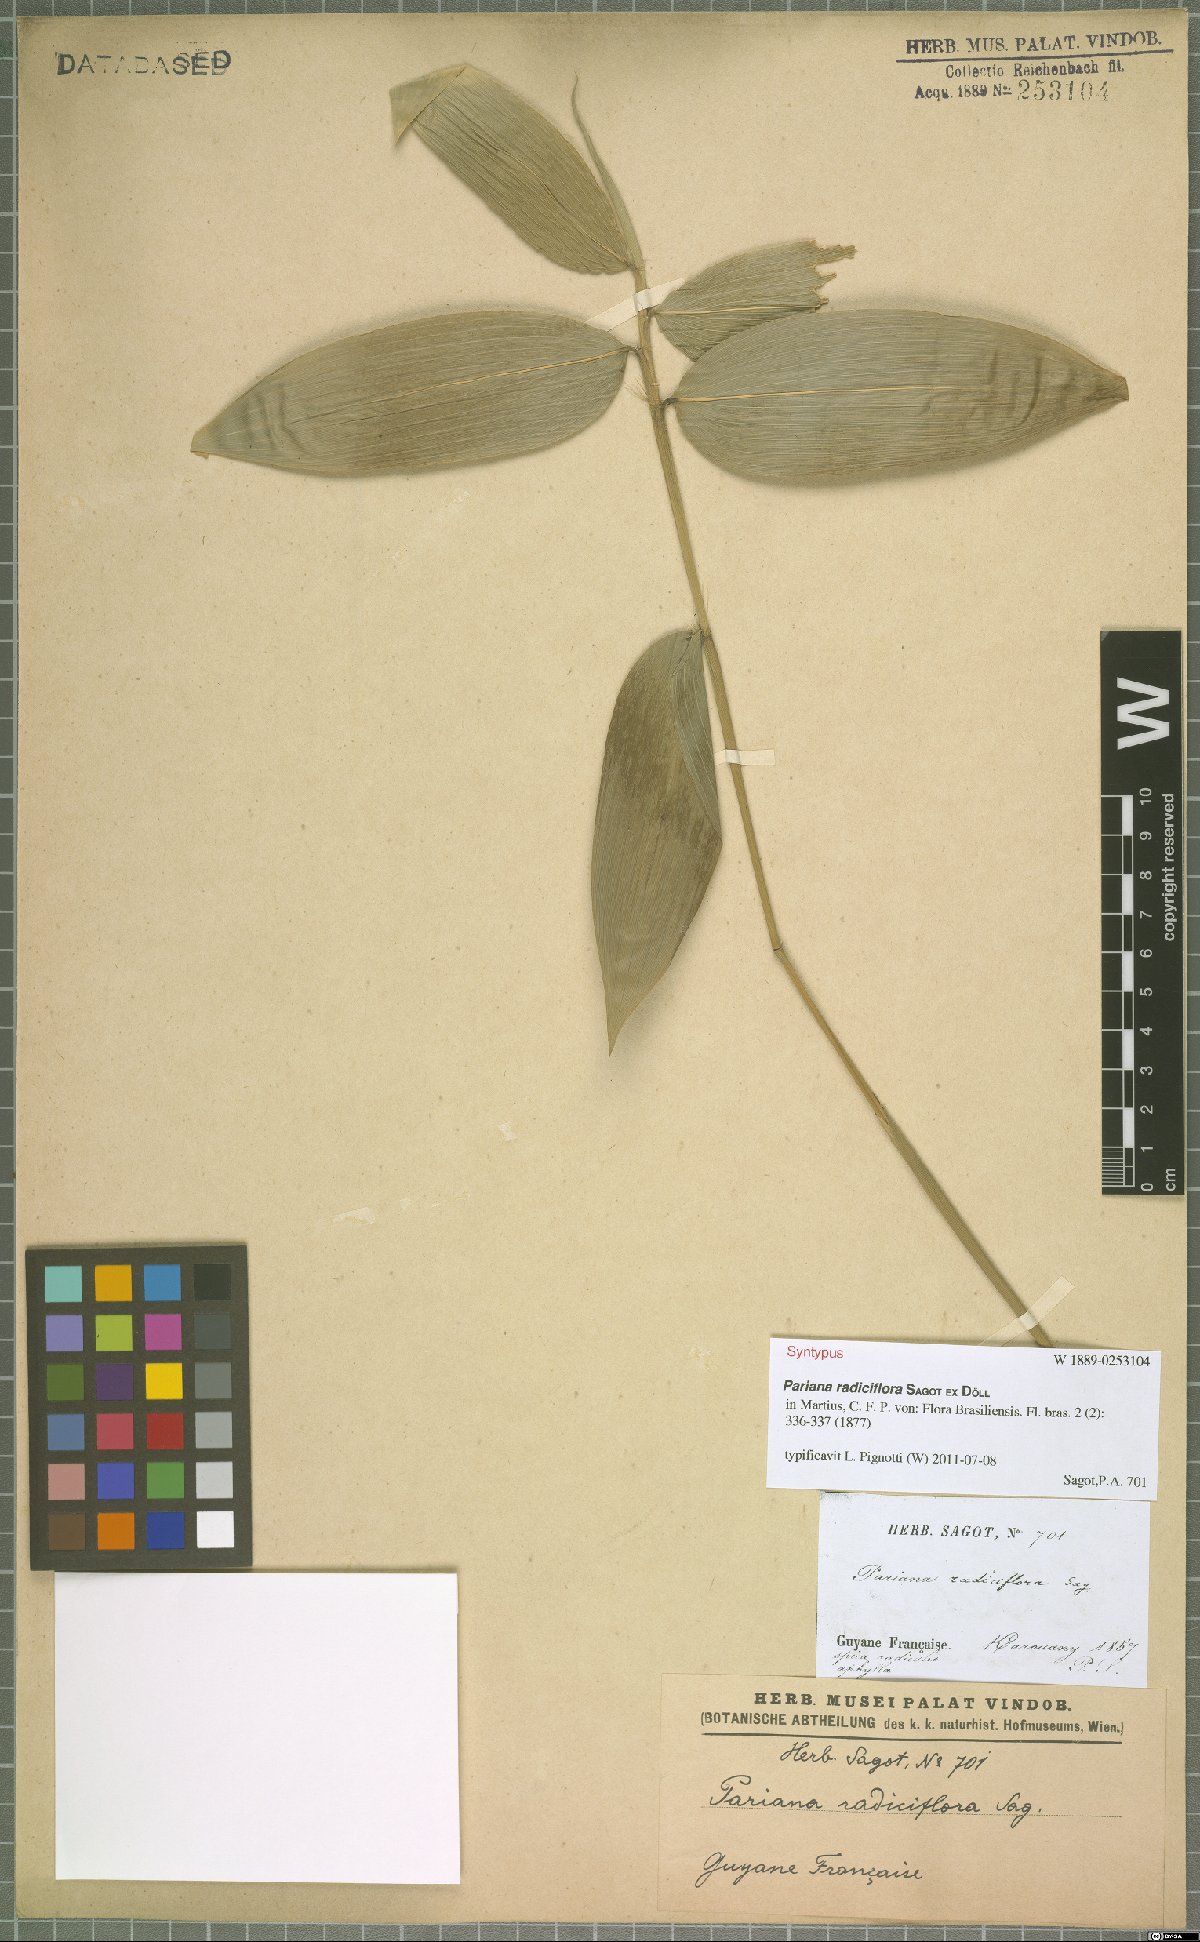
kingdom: Plantae
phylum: Tracheophyta
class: Liliopsida
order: Poales
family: Poaceae
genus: Pariana
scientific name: Pariana radiciflora
